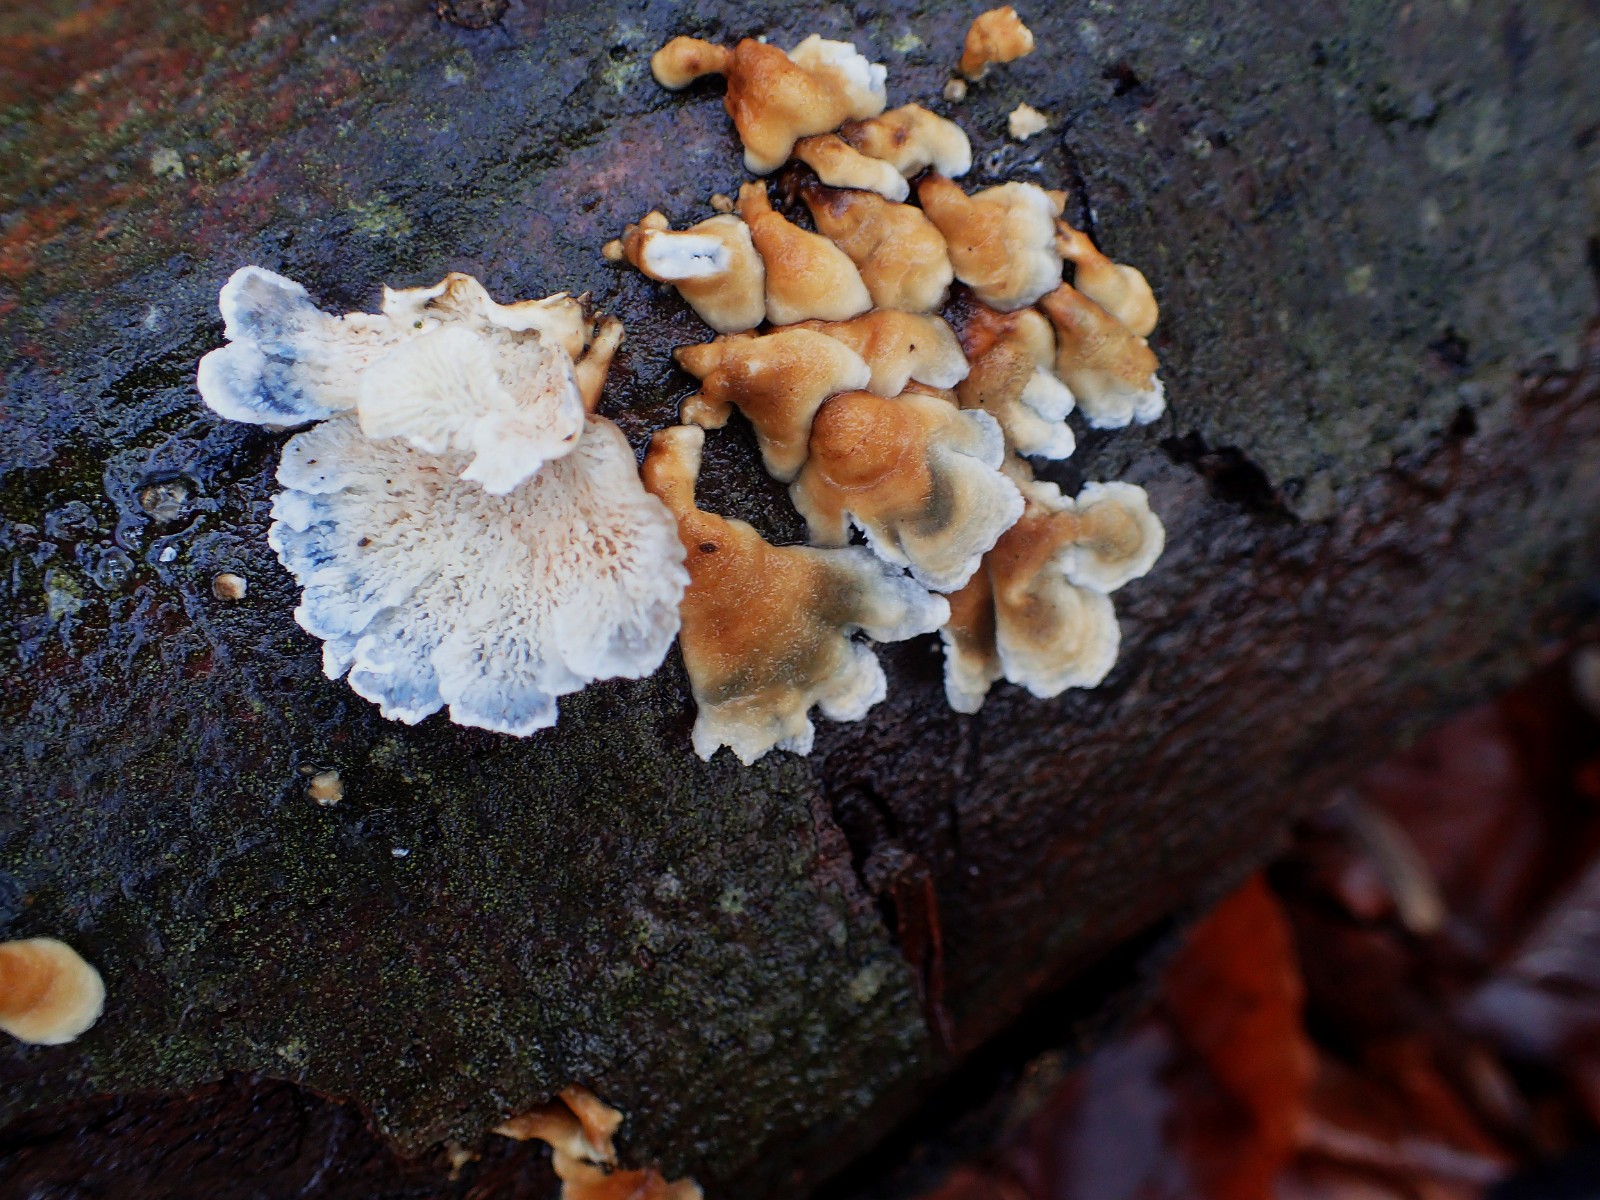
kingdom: Fungi
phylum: Basidiomycota
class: Agaricomycetes
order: Amylocorticiales
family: Amylocorticiaceae
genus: Plicaturopsis
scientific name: Plicaturopsis crispa
